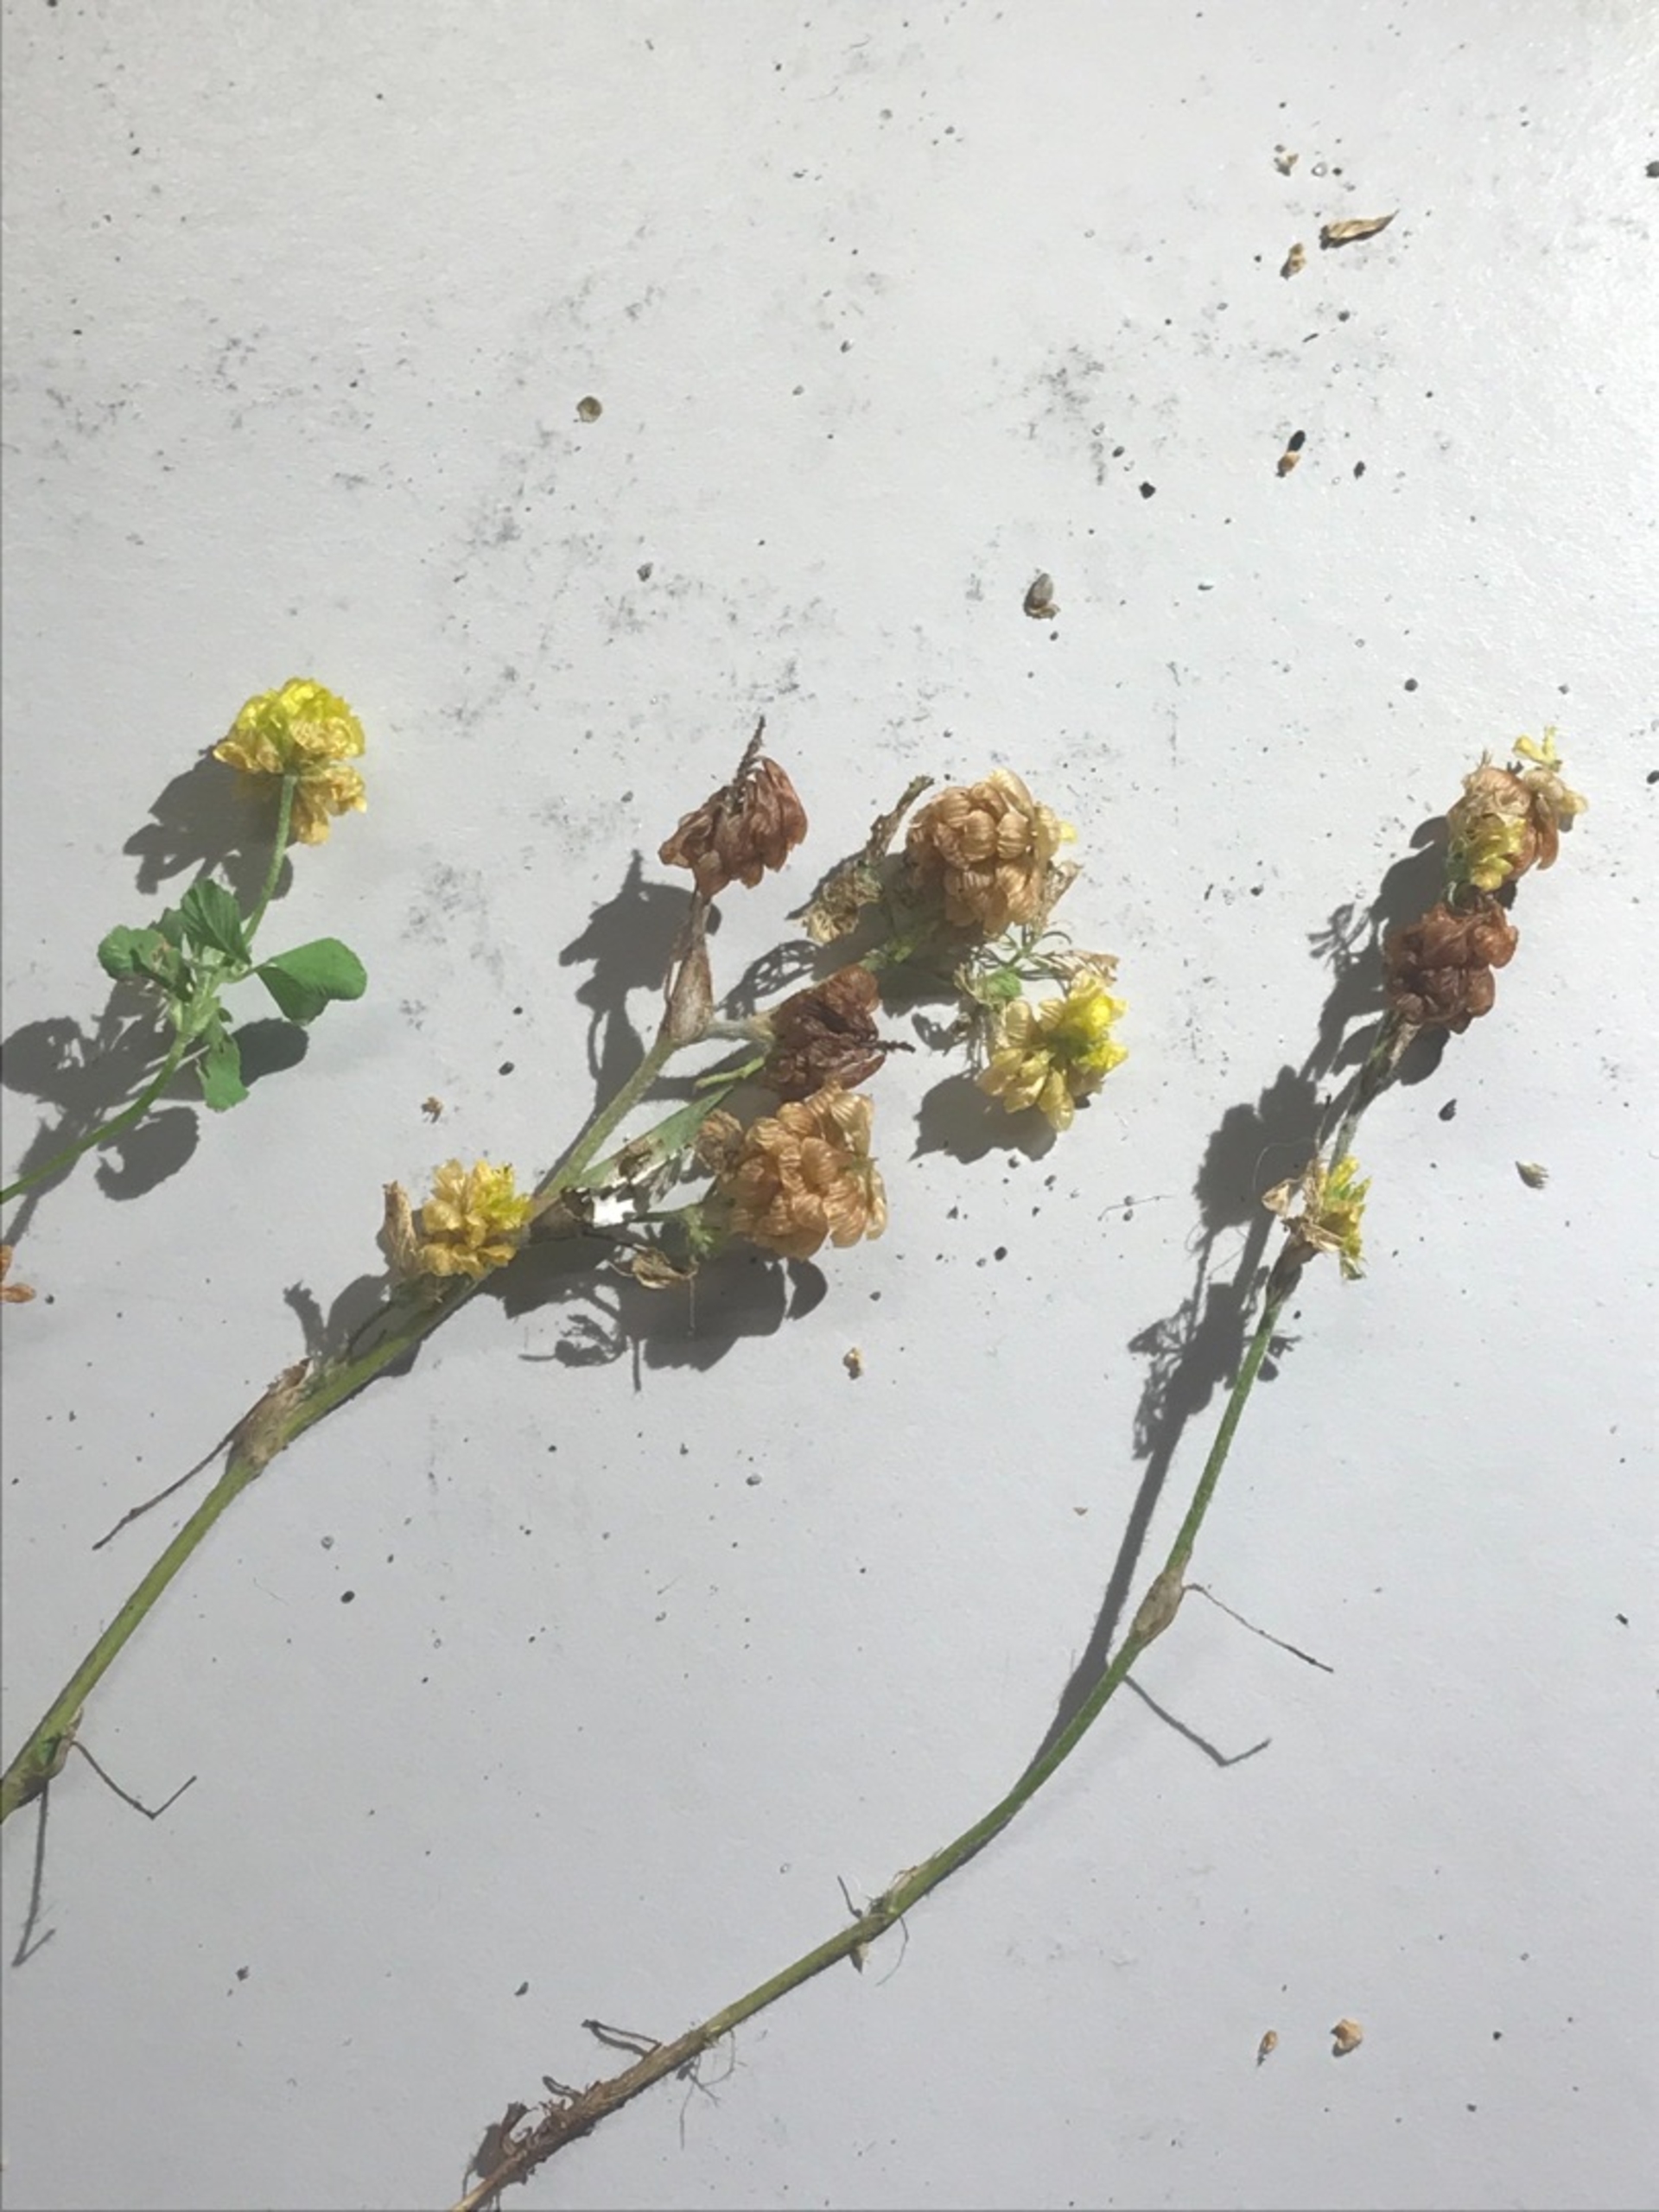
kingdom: Plantae
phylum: Tracheophyta
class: Magnoliopsida
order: Fabales
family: Fabaceae
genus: Trifolium
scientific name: Trifolium campestre
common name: Gul kløver
